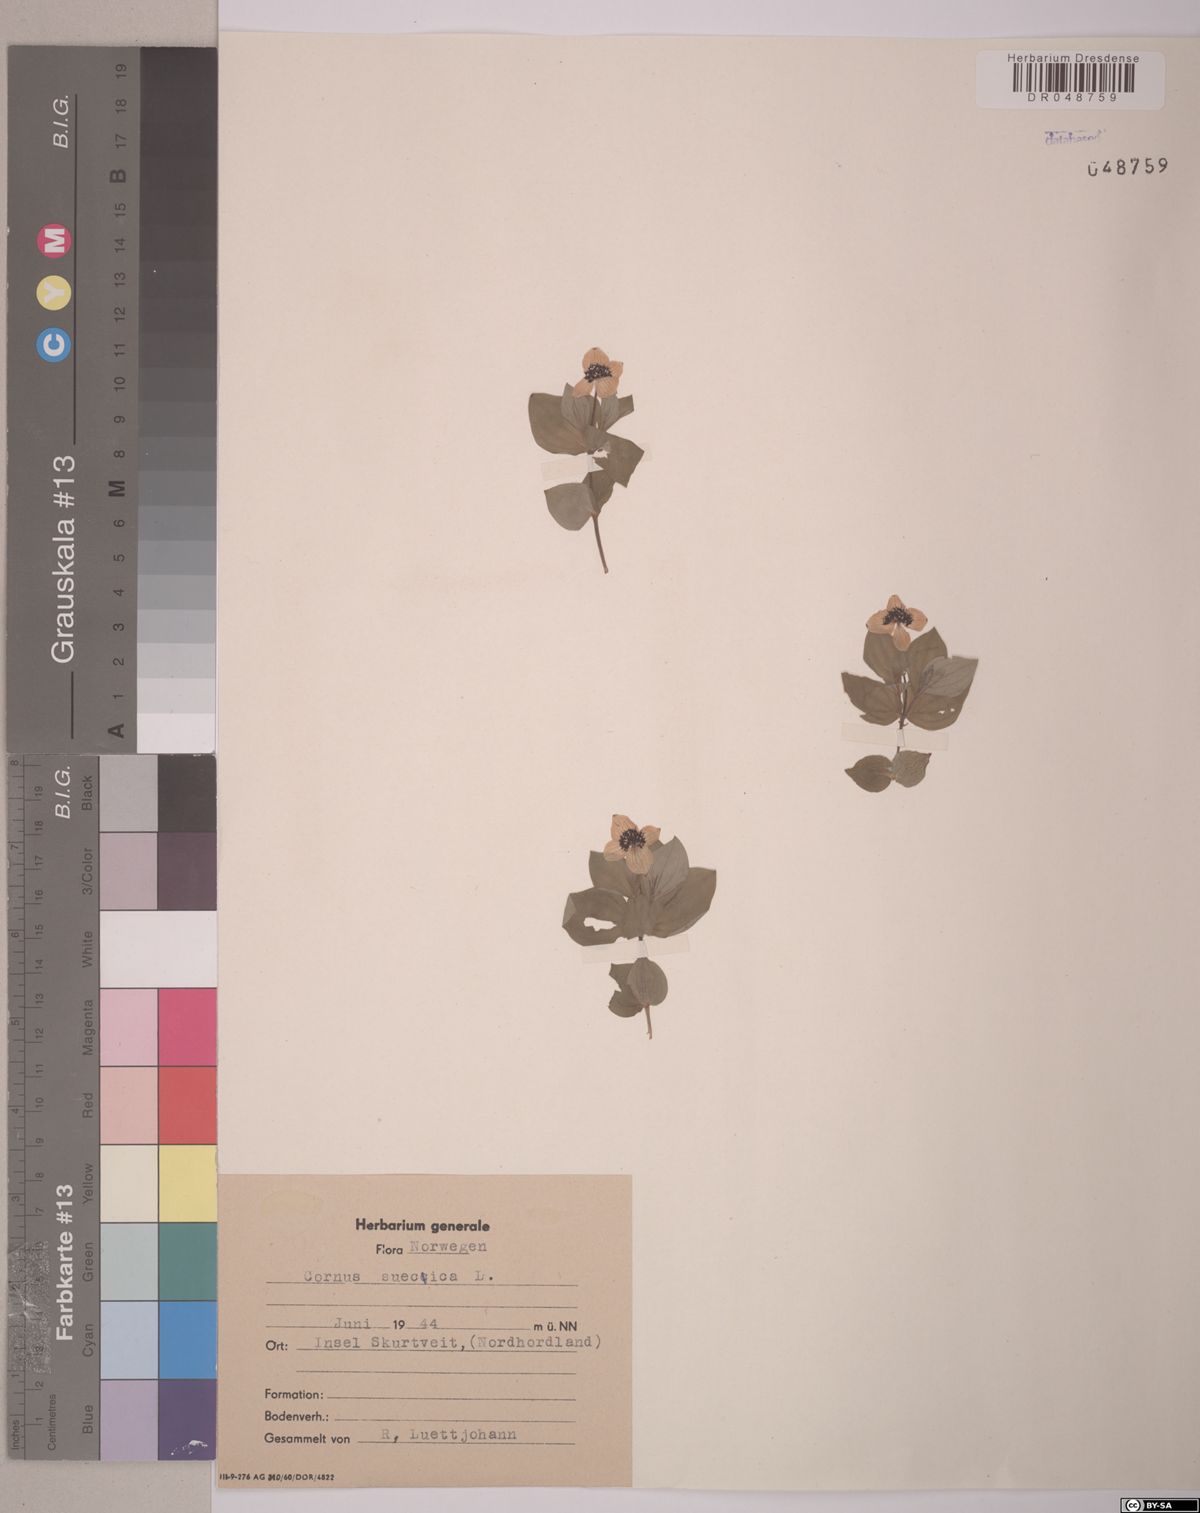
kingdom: Plantae
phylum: Tracheophyta
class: Magnoliopsida
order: Cornales
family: Cornaceae
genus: Cornus
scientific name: Cornus suecica
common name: Dwarf cornel
